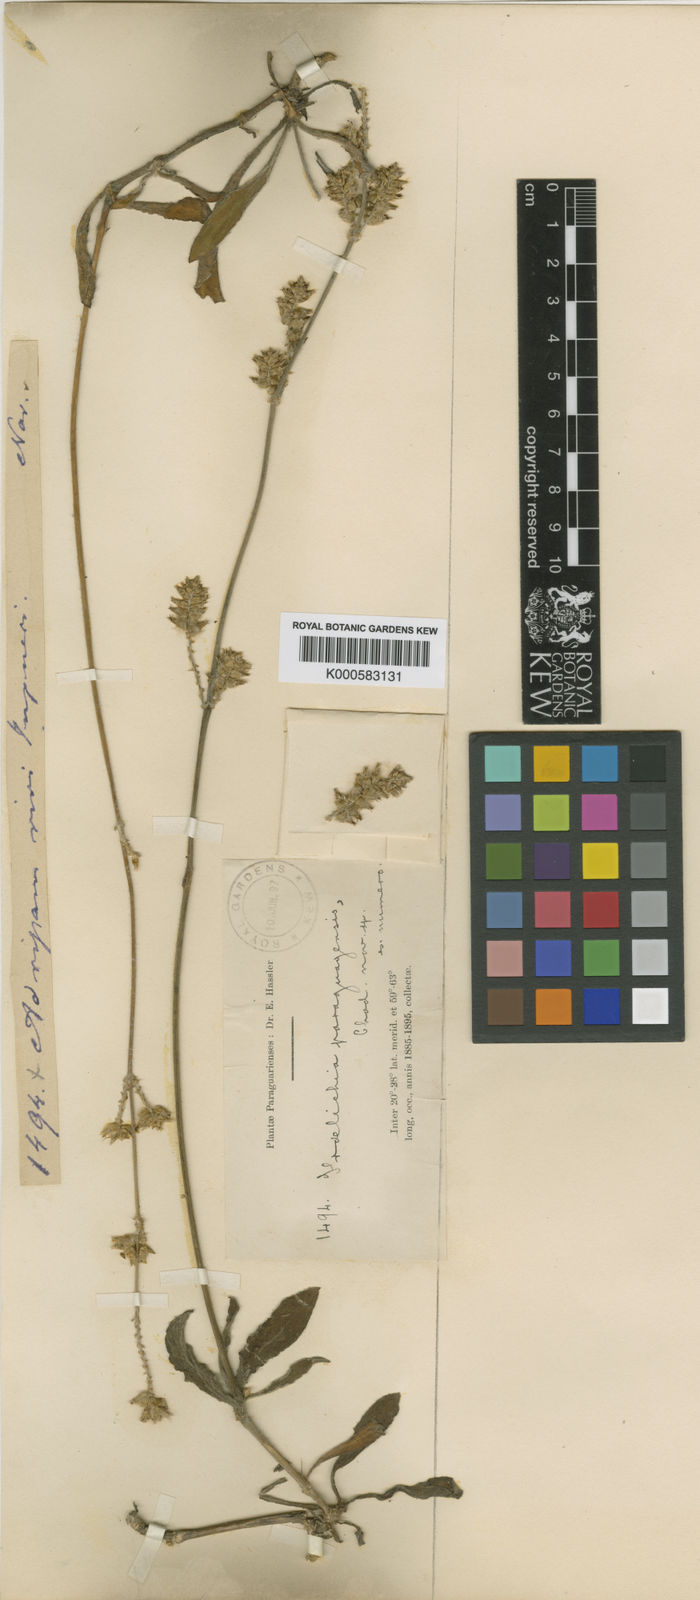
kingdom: Plantae
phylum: Tracheophyta
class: Magnoliopsida
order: Caryophyllales
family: Amaranthaceae
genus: Froelichia
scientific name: Froelichia paraguayensis
